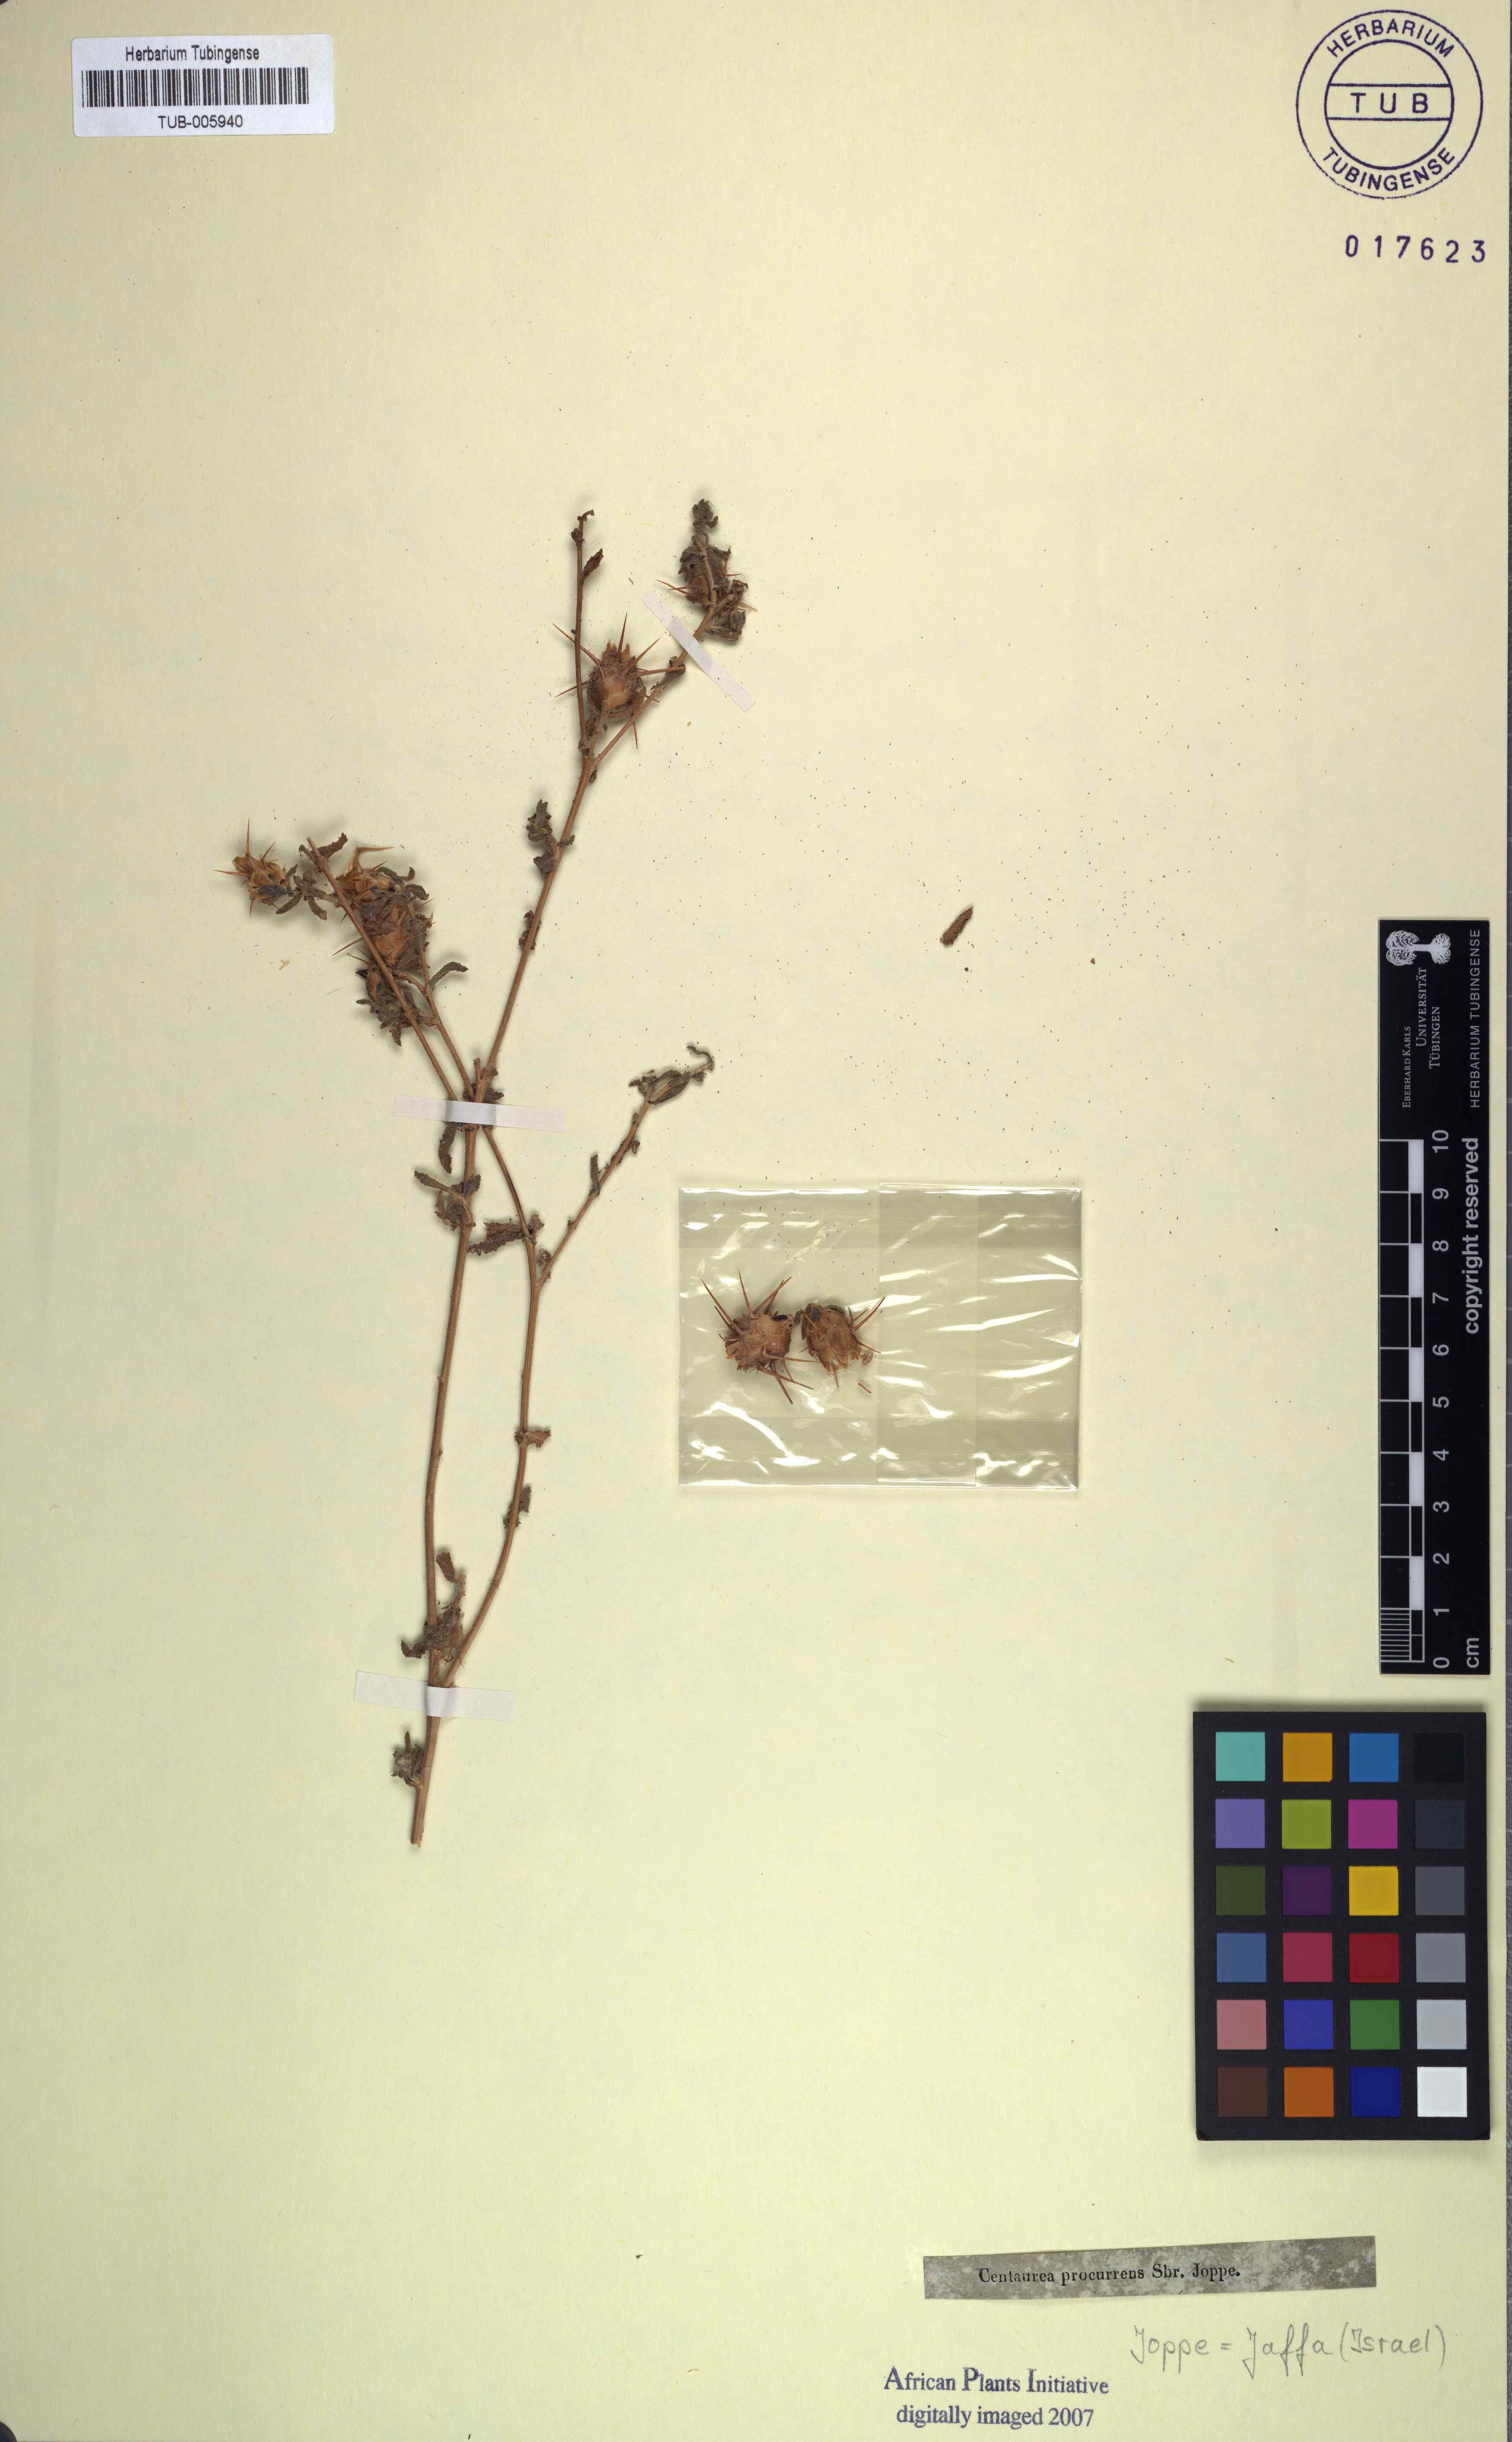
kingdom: Plantae
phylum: Tracheophyta
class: Magnoliopsida
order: Asterales
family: Asteraceae
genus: Centaurea
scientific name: Centaurea procurrens
